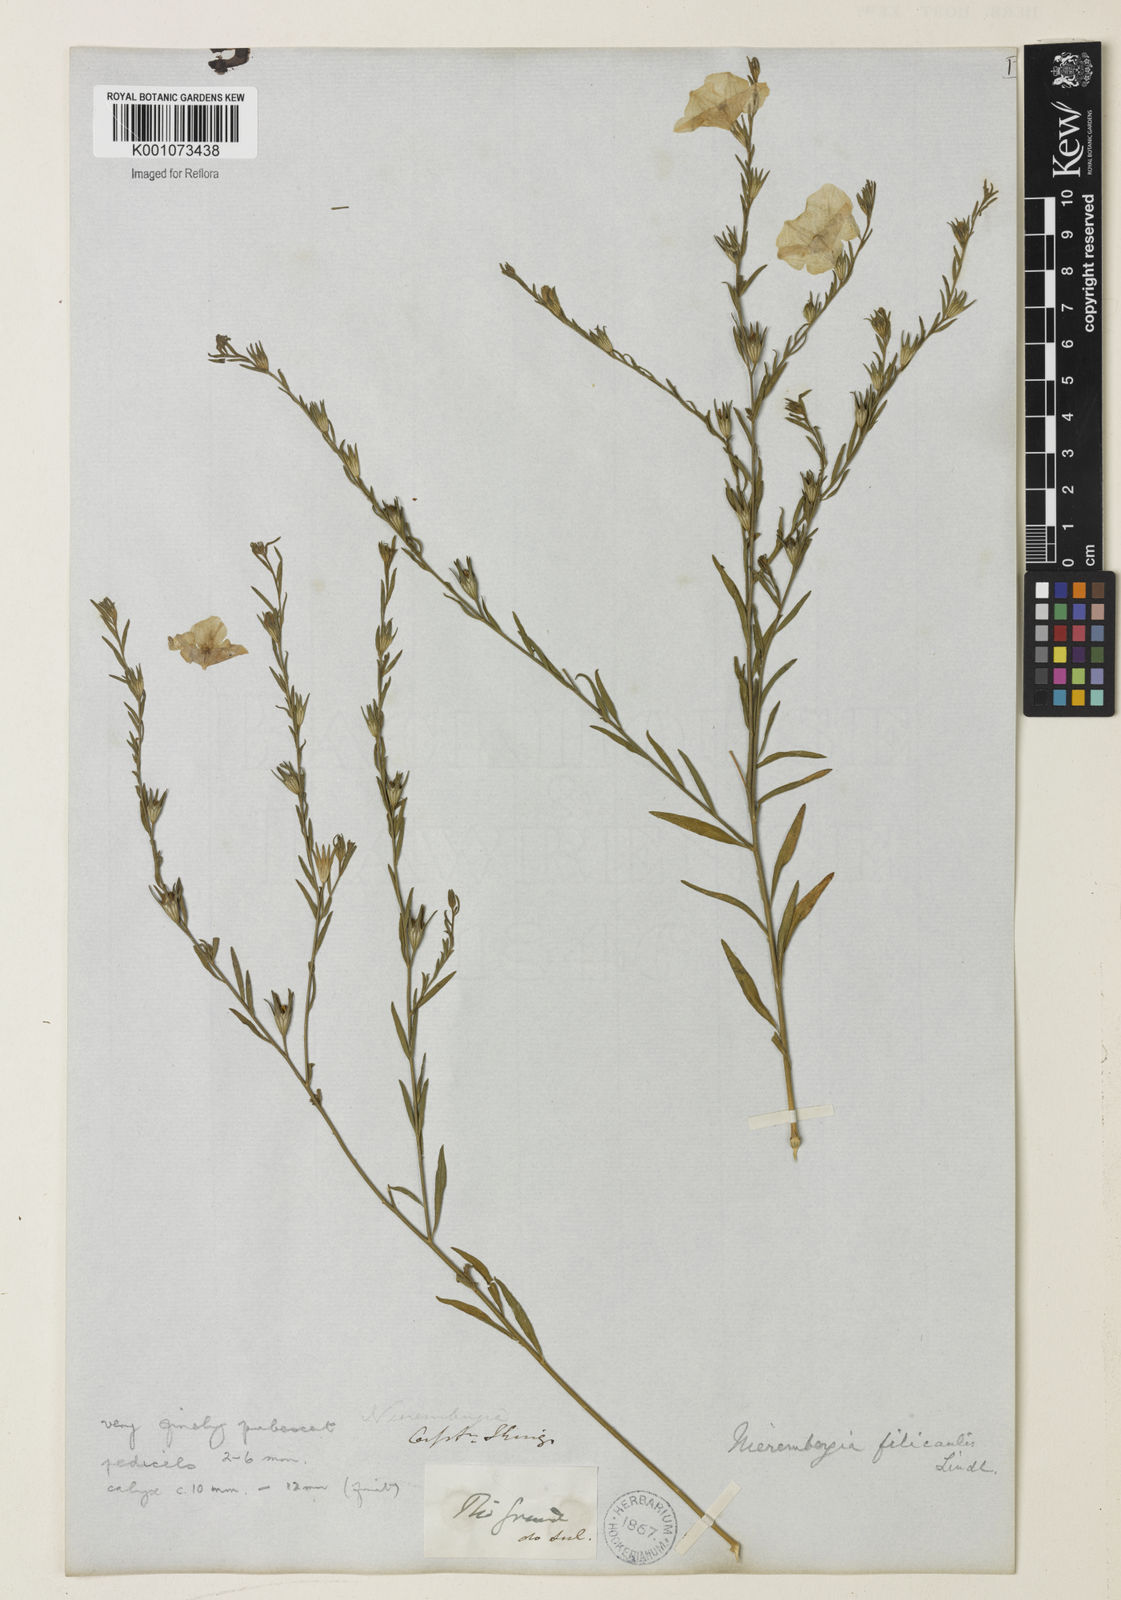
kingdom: Plantae
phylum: Tracheophyta
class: Magnoliopsida
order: Solanales
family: Solanaceae
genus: Nierembergia
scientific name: Nierembergia scoparia
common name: Broom cupflower
